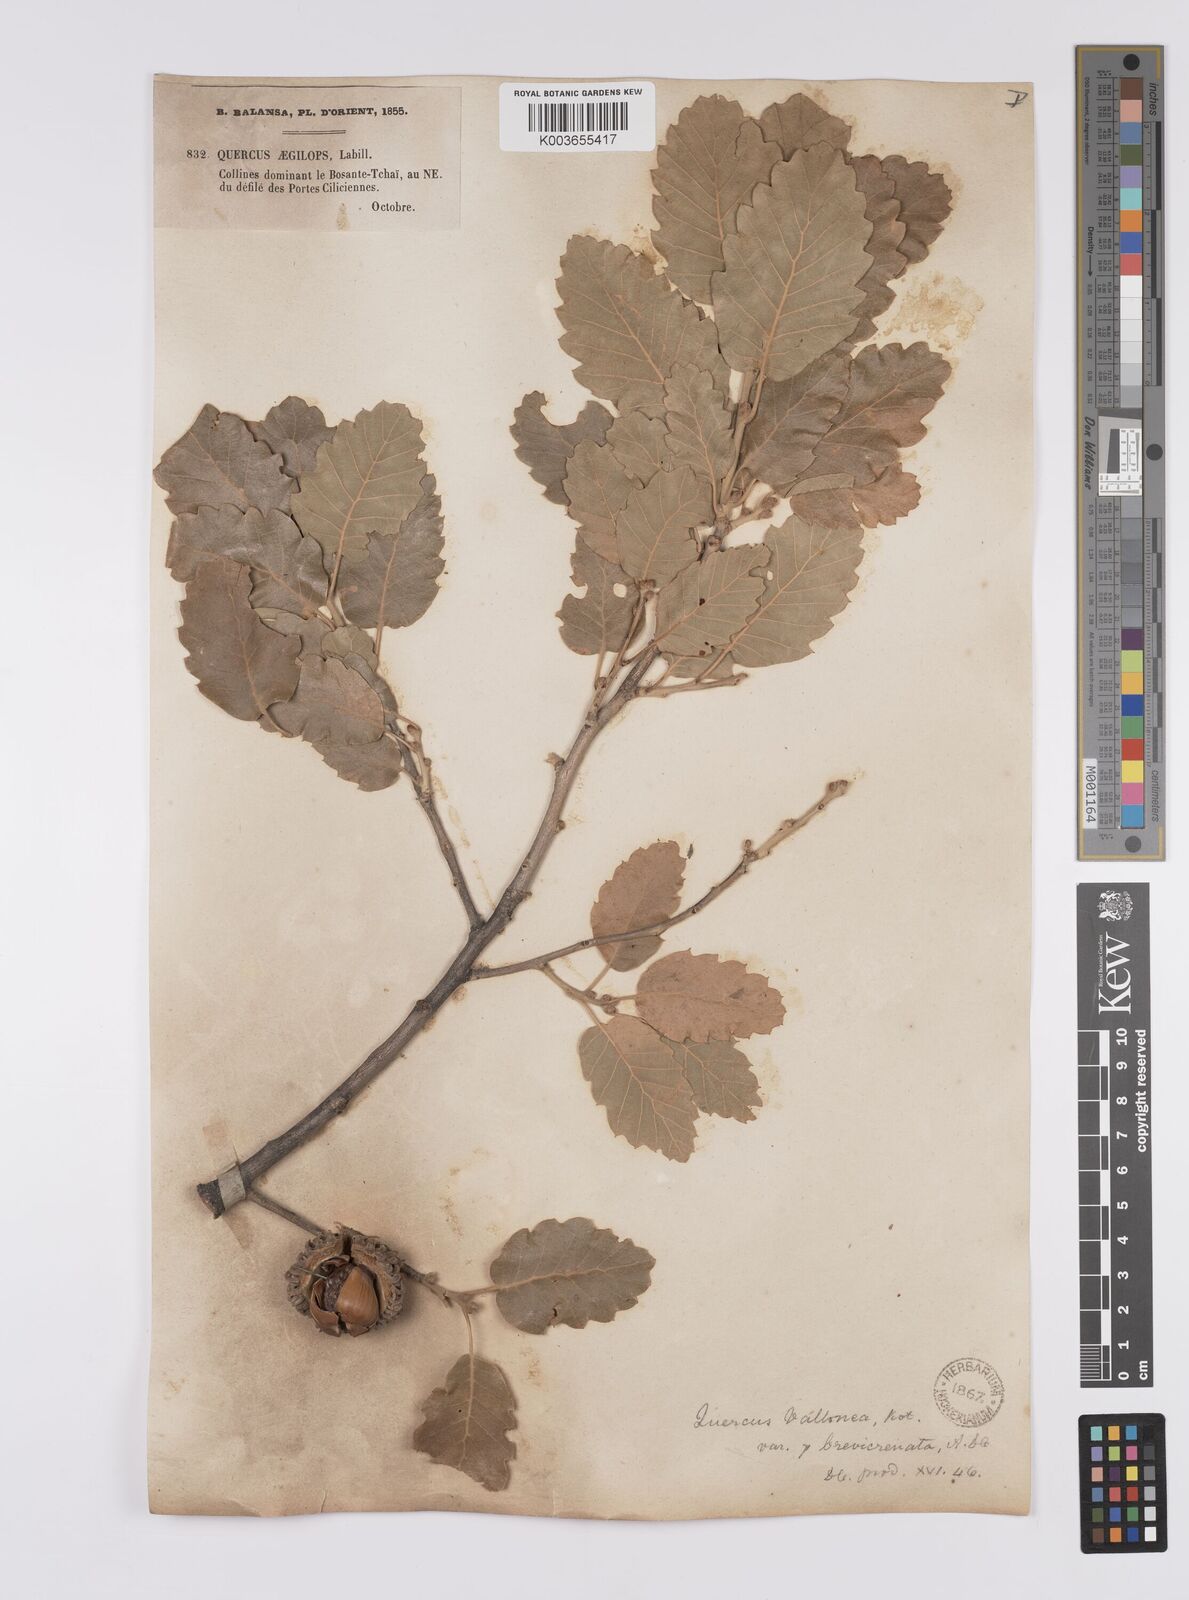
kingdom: Plantae
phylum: Tracheophyta
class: Magnoliopsida
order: Fagales
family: Fagaceae
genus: Quercus
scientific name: Quercus
